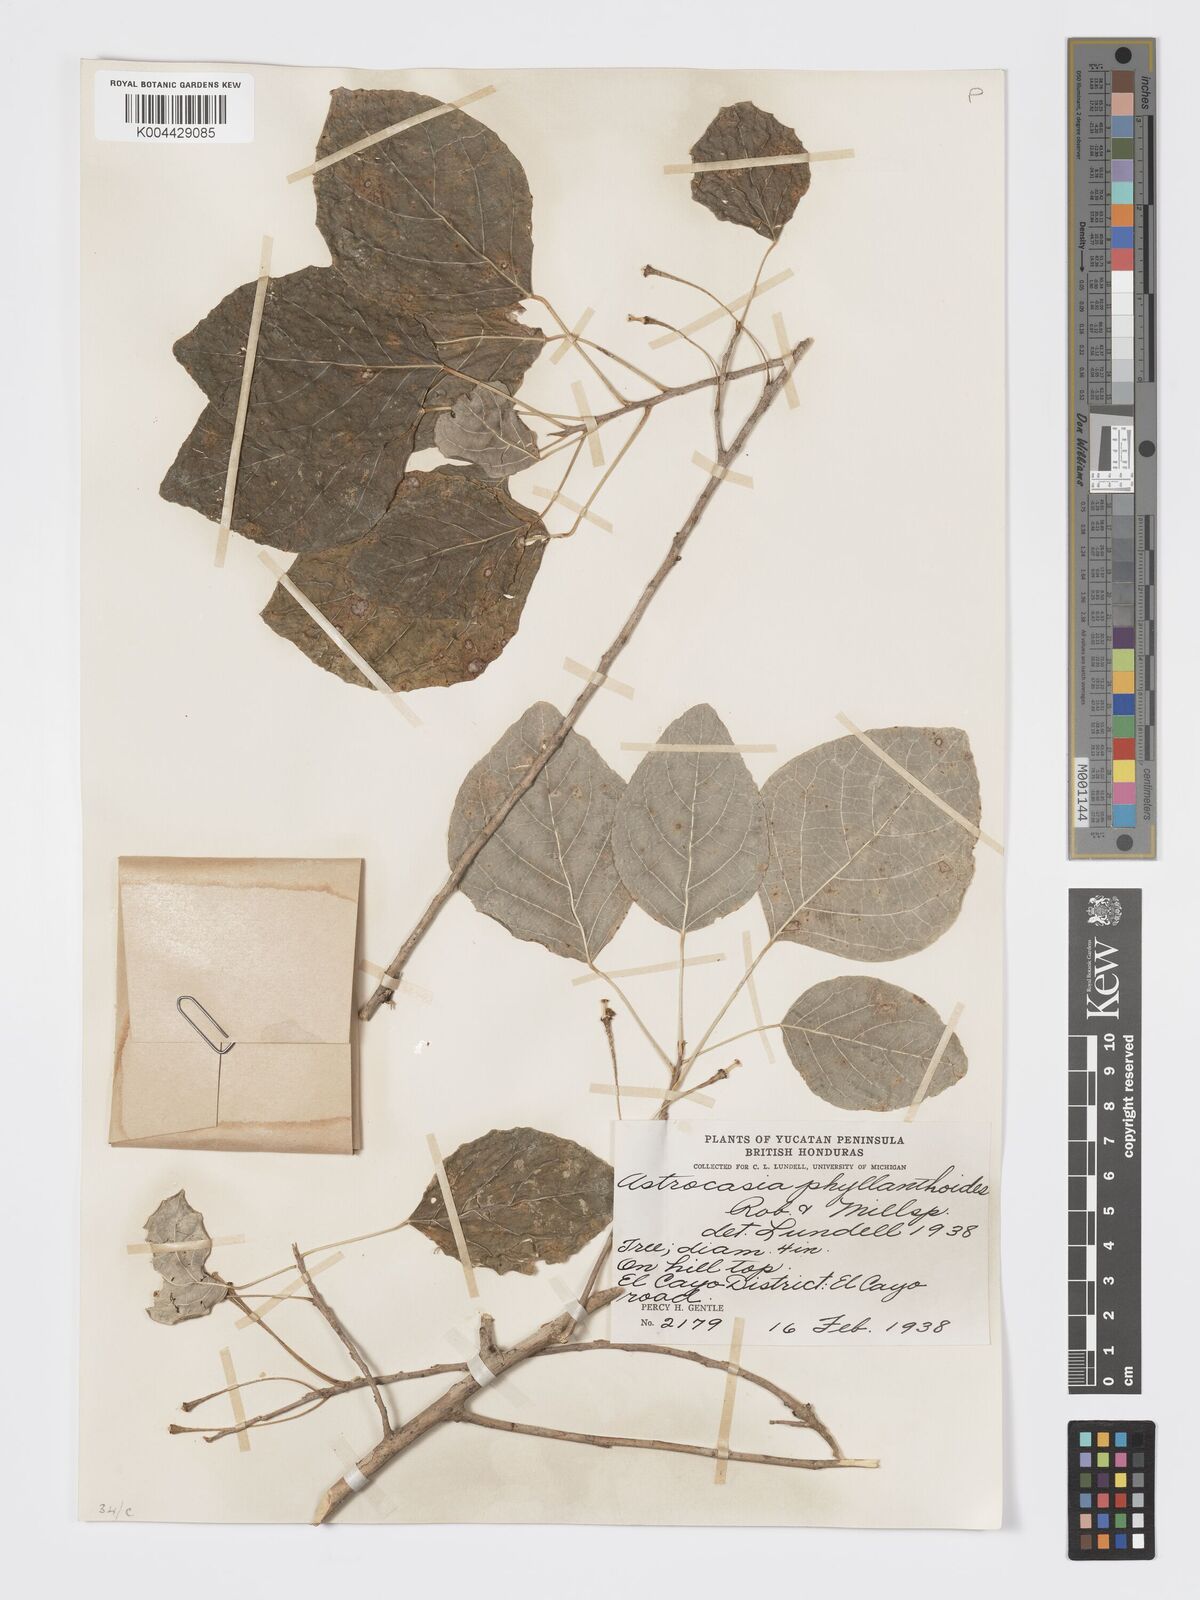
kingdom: Plantae
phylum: Tracheophyta
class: Magnoliopsida
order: Malpighiales
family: Phyllanthaceae
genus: Astrocasia
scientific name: Astrocasia tremula
